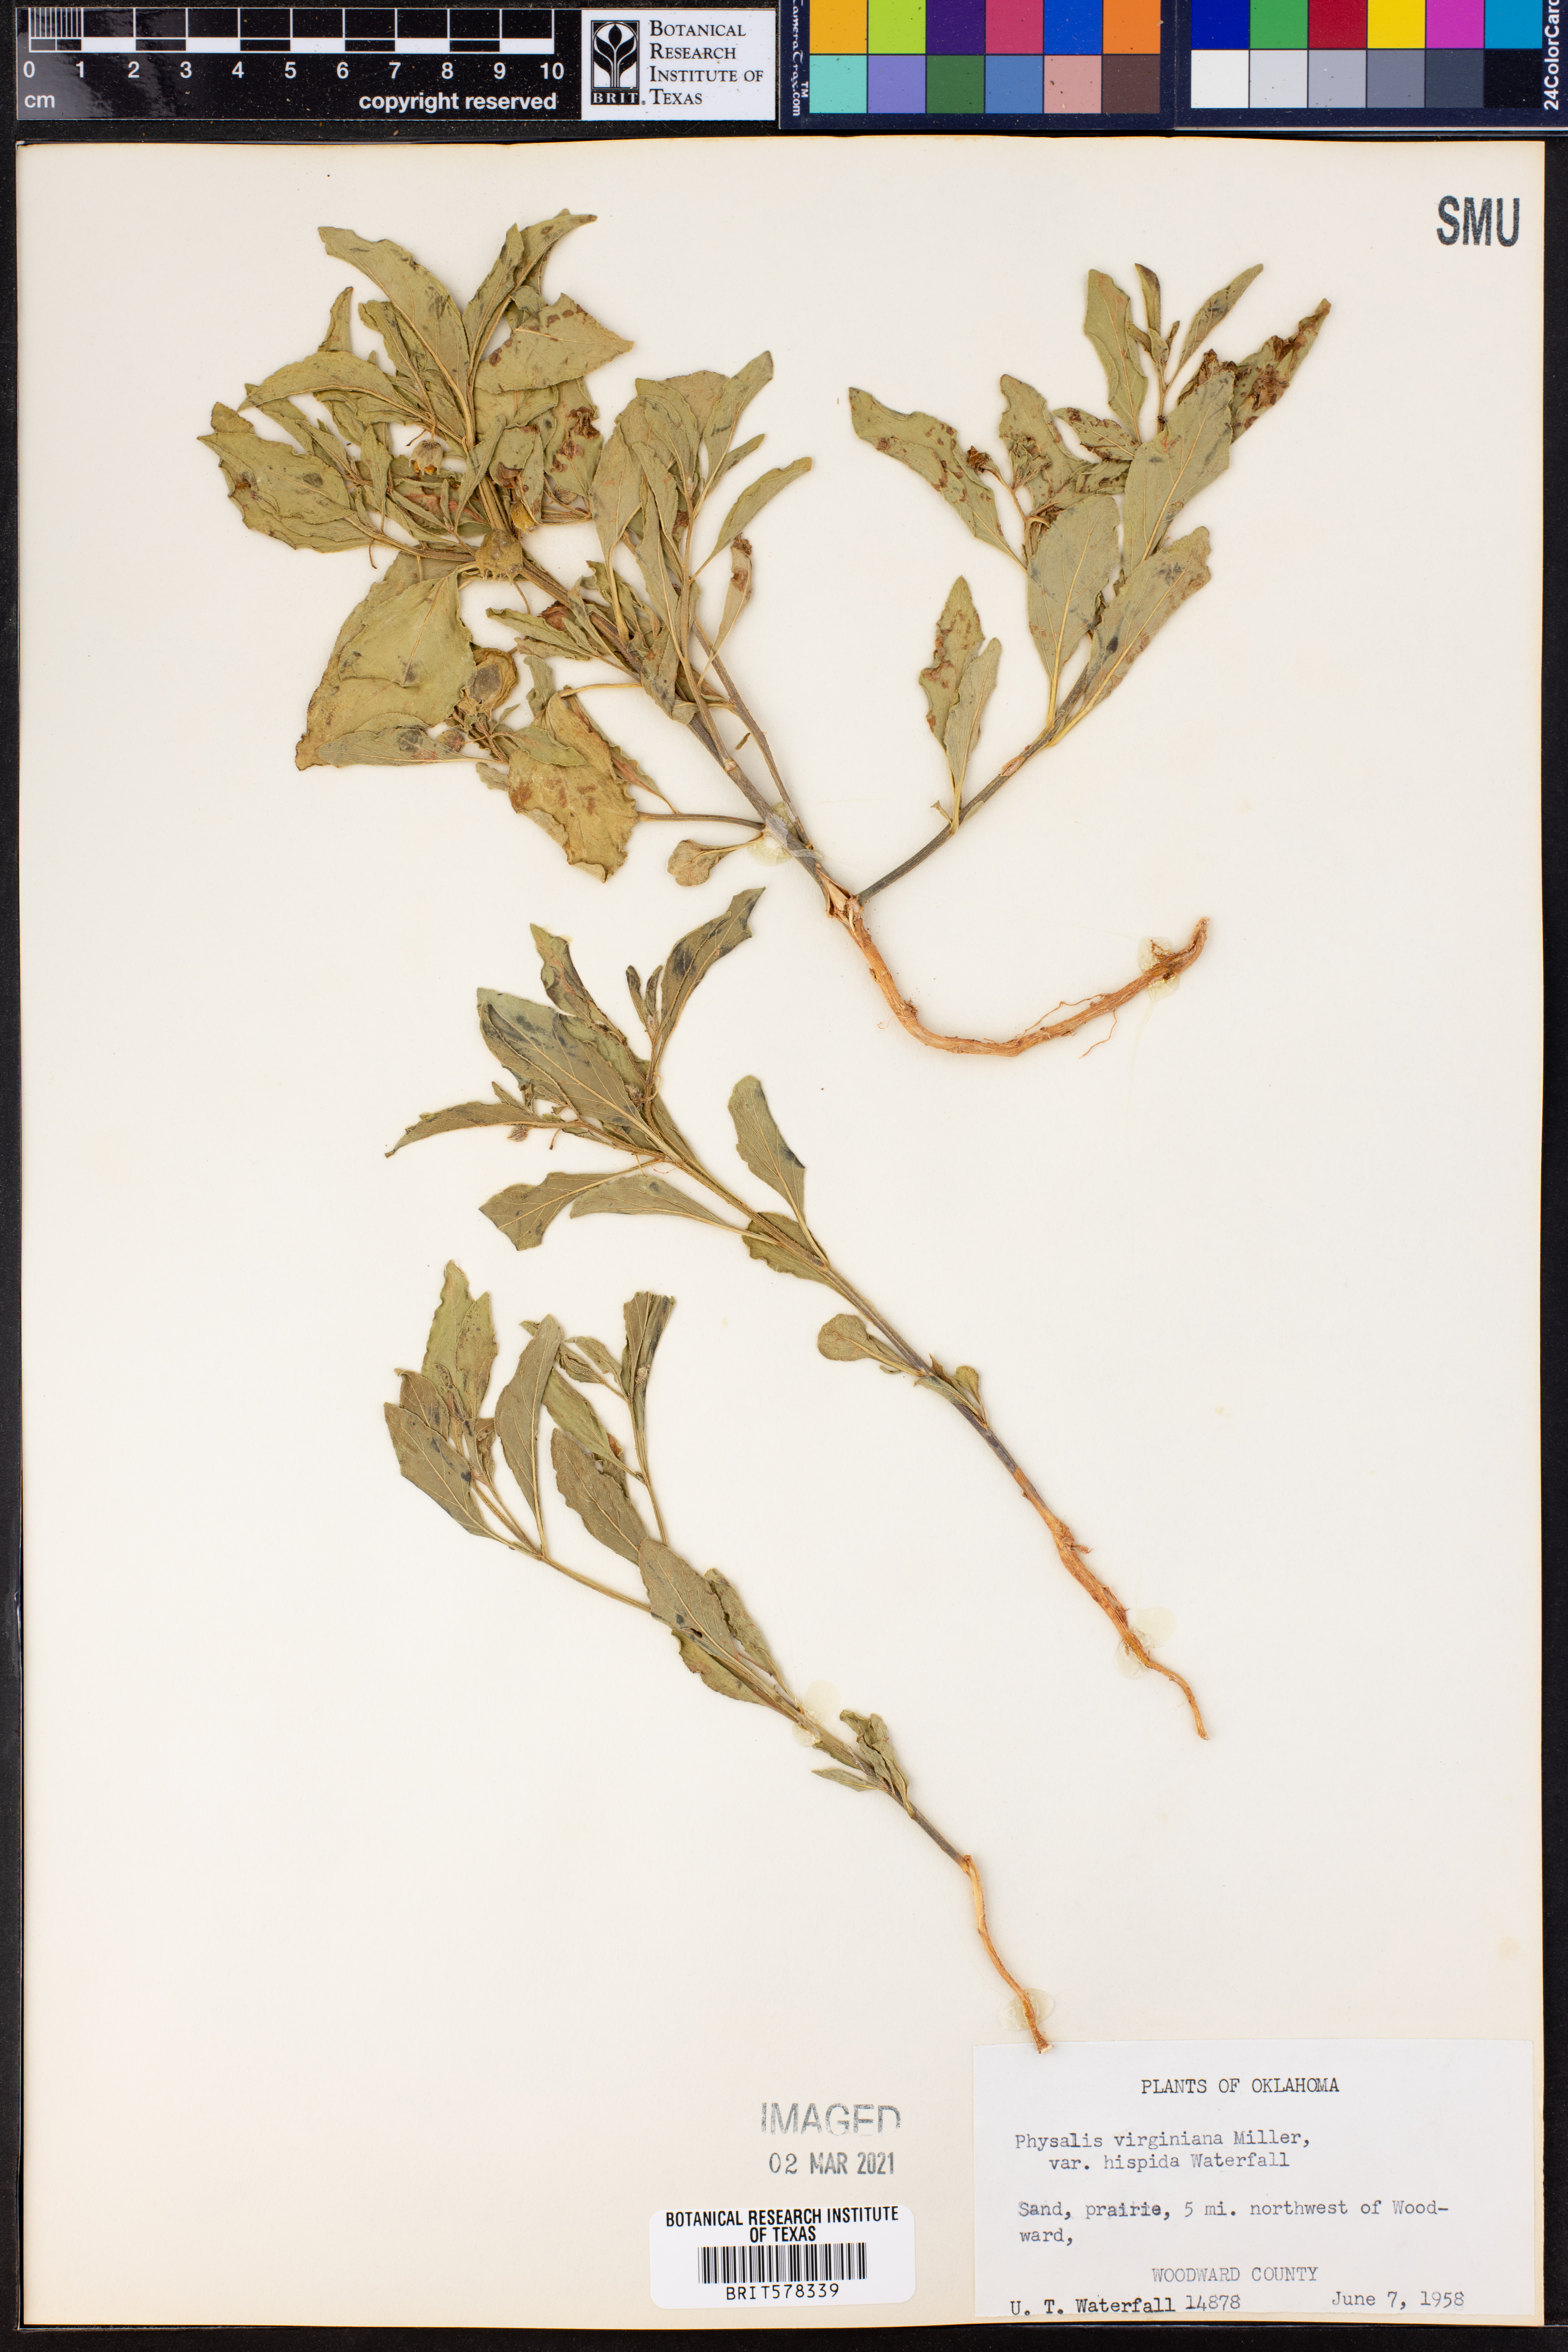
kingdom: Plantae
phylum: Tracheophyta
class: Magnoliopsida
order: Solanales
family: Solanaceae
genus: Physalis
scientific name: Physalis pumila
